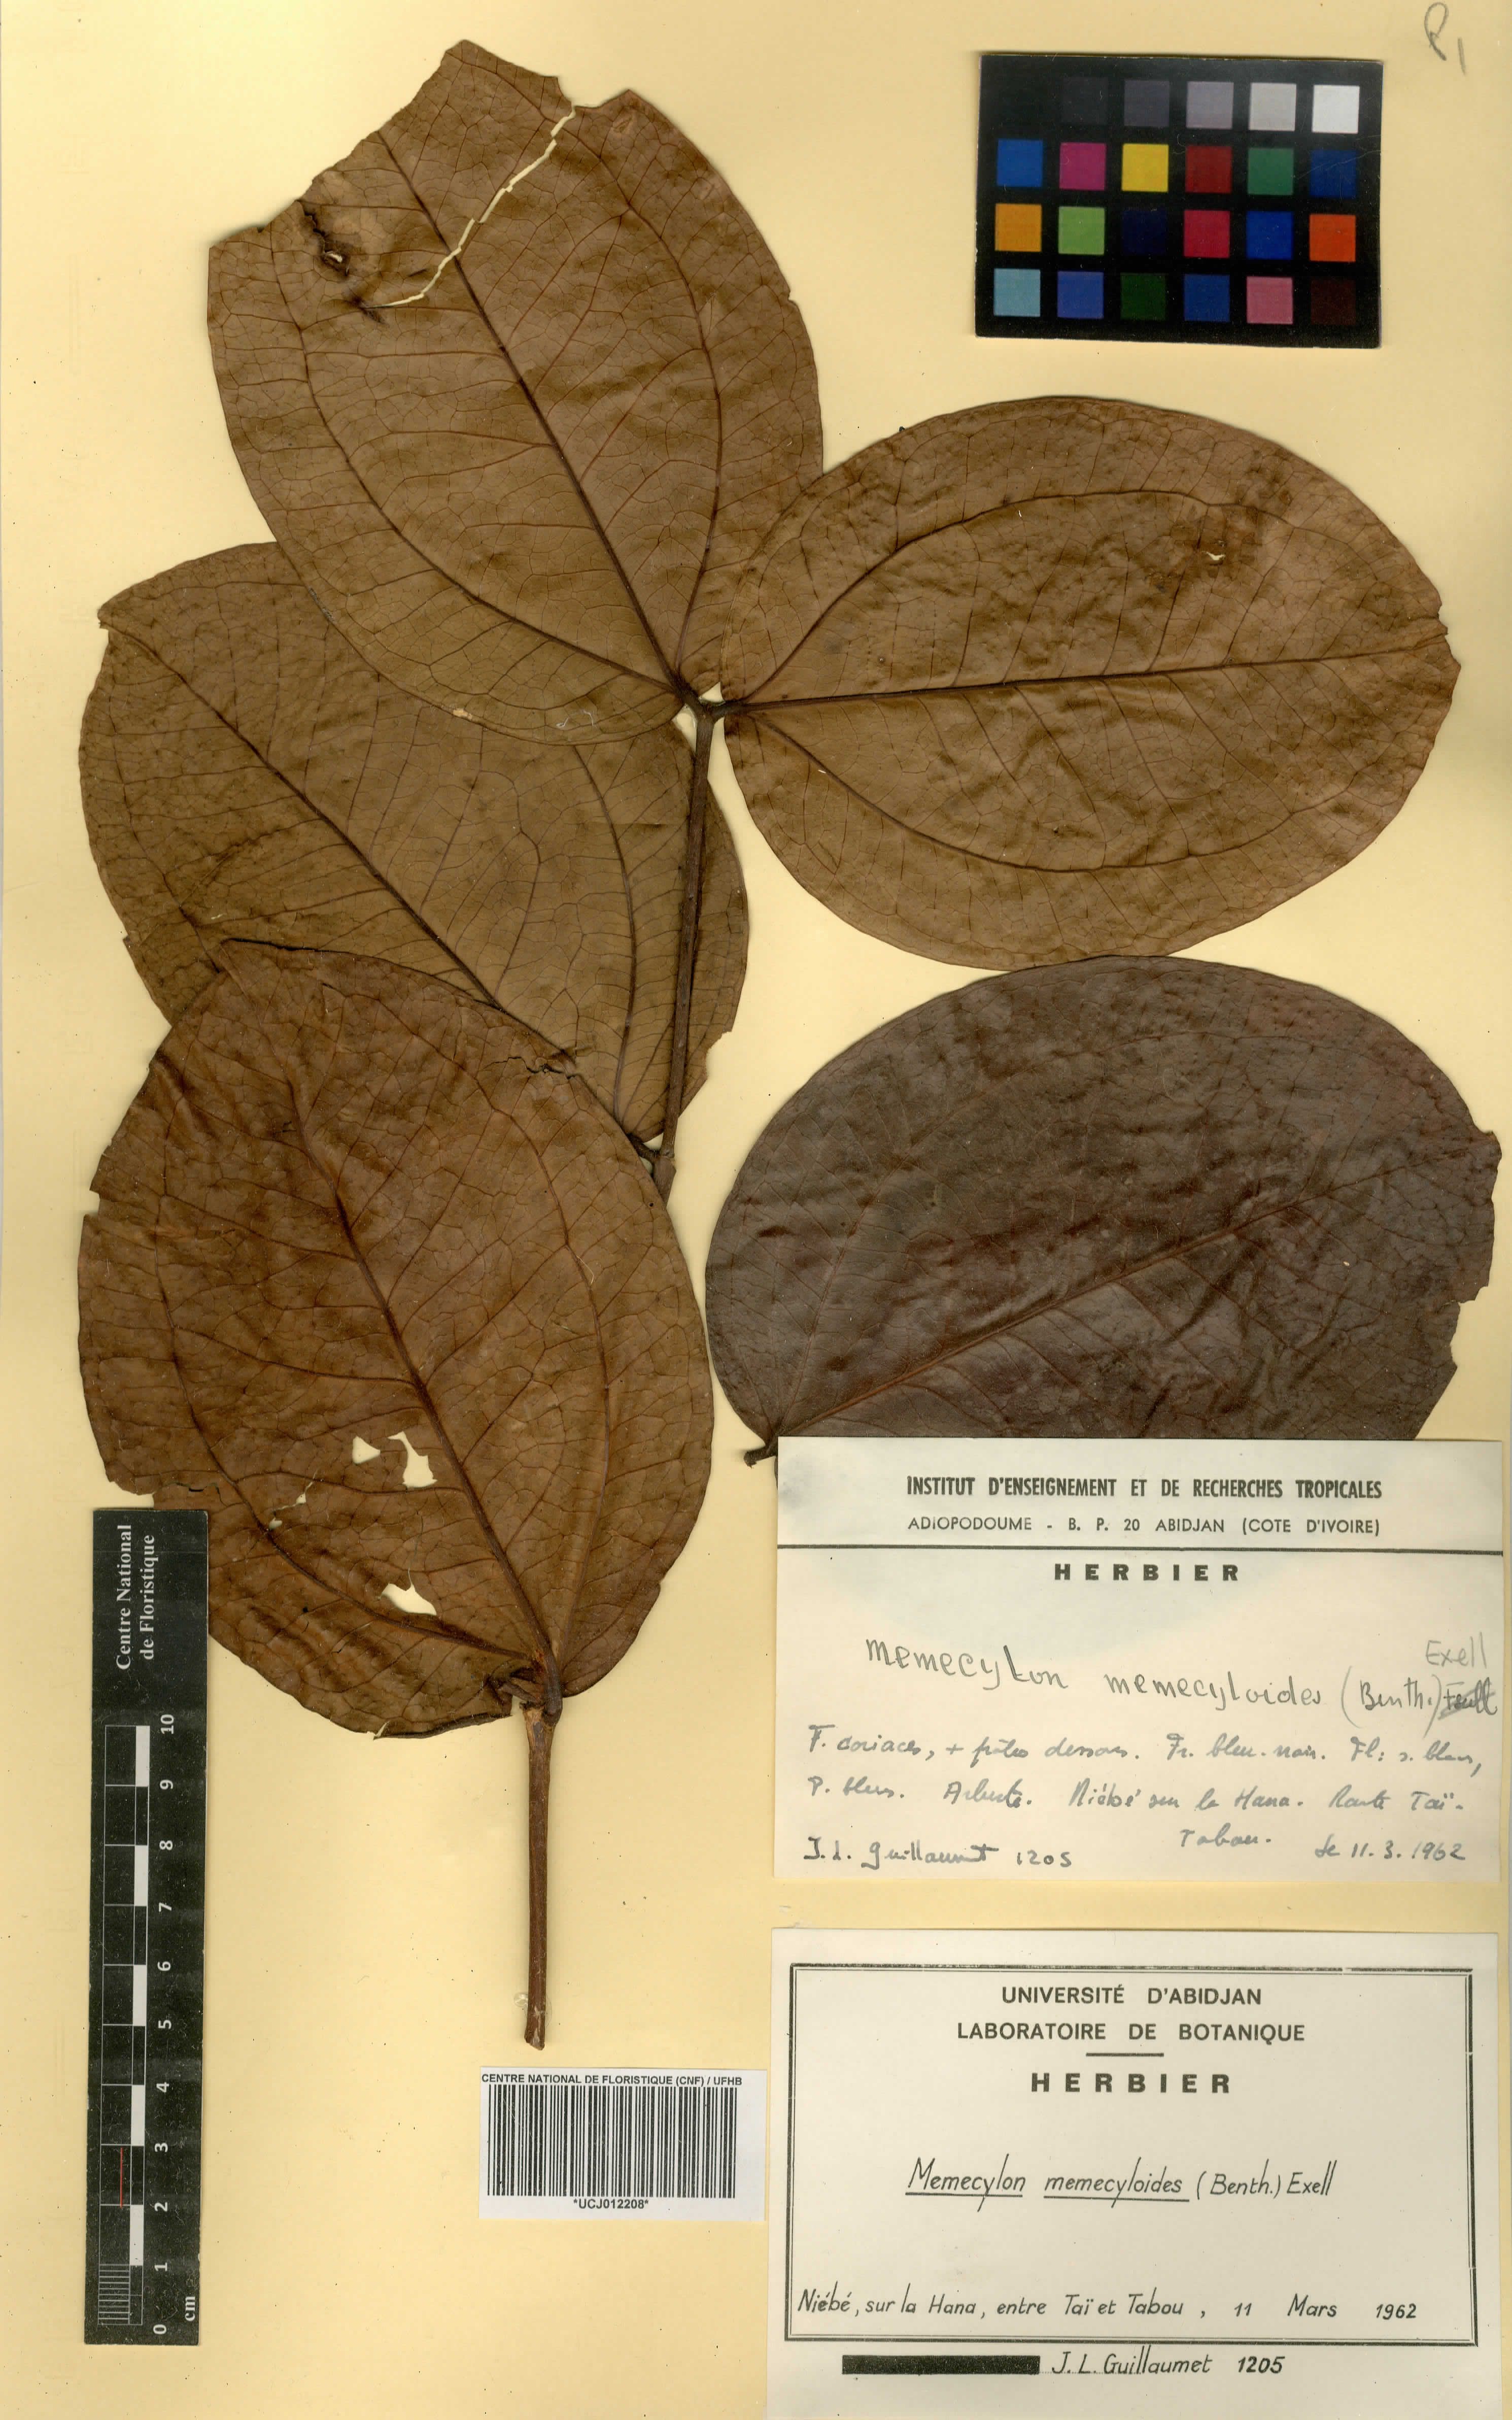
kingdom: Plantae
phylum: Tracheophyta
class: Magnoliopsida
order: Myrtales
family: Melastomataceae
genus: Warneckea
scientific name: Warneckea memecyloides
